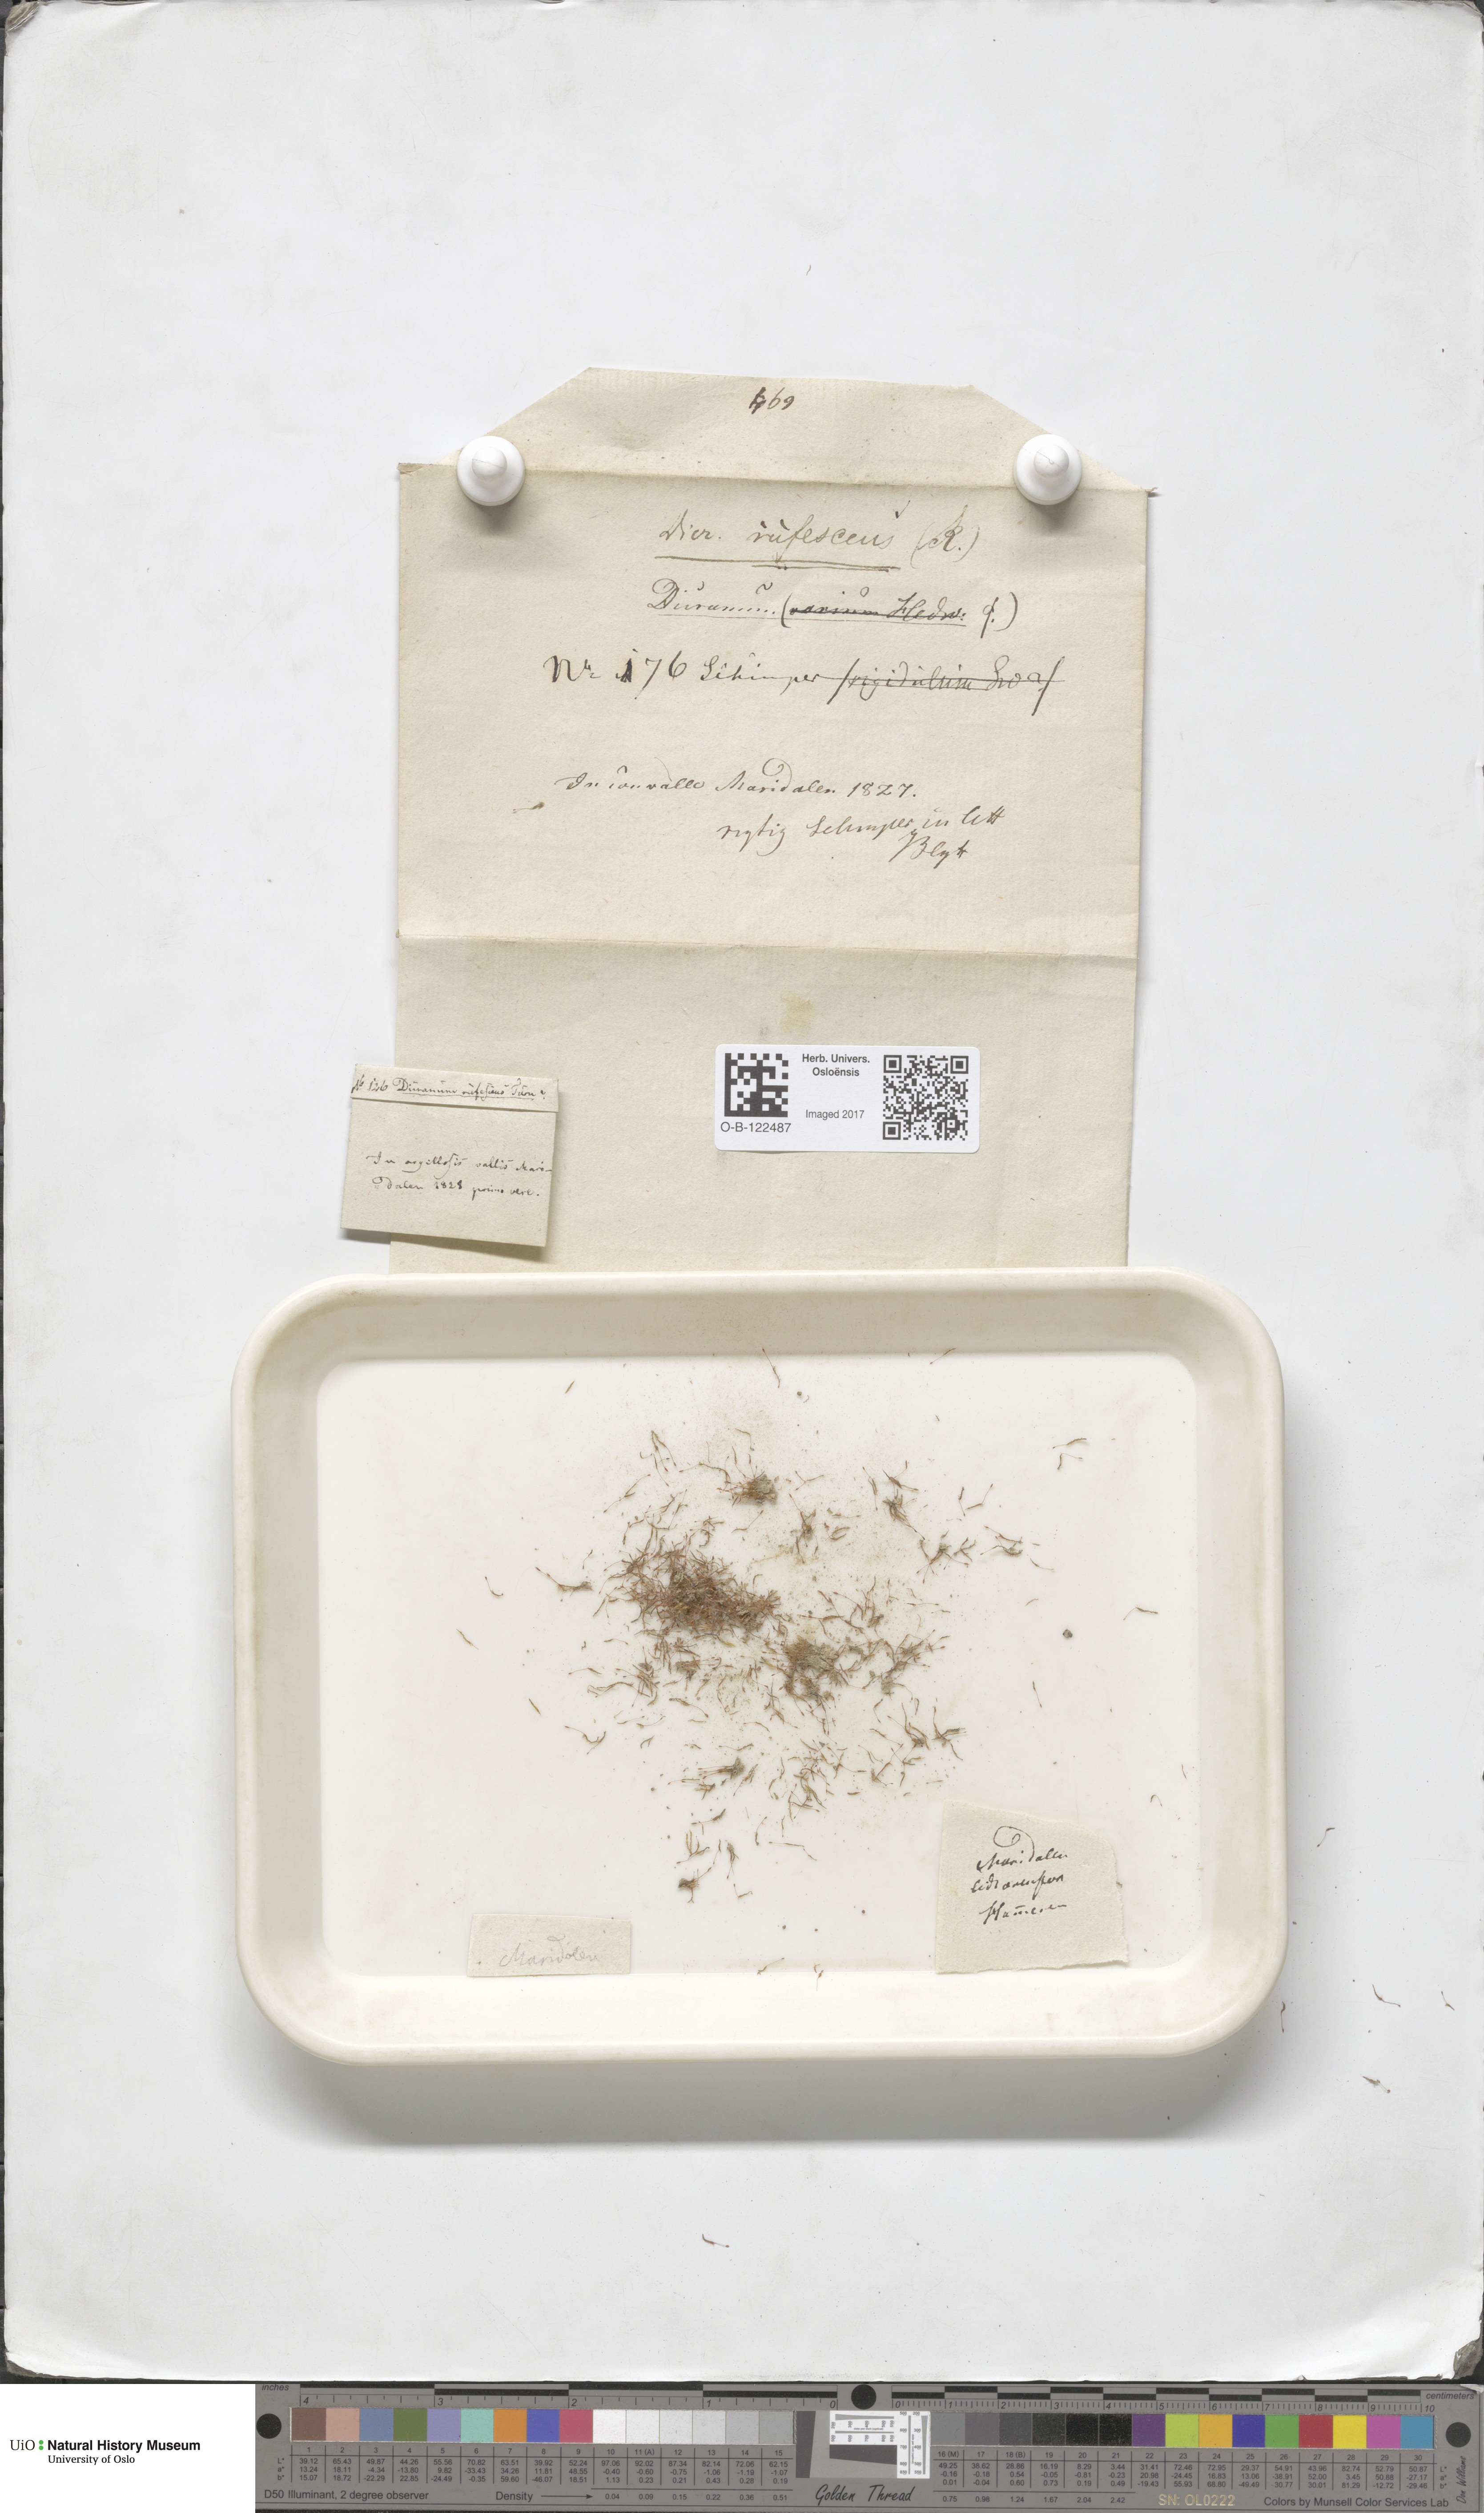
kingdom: Plantae
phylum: Bryophyta
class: Bryopsida
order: Dicranales
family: Dicranellaceae
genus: Dicranella
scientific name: Dicranella rufescens
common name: Red forklet moss
